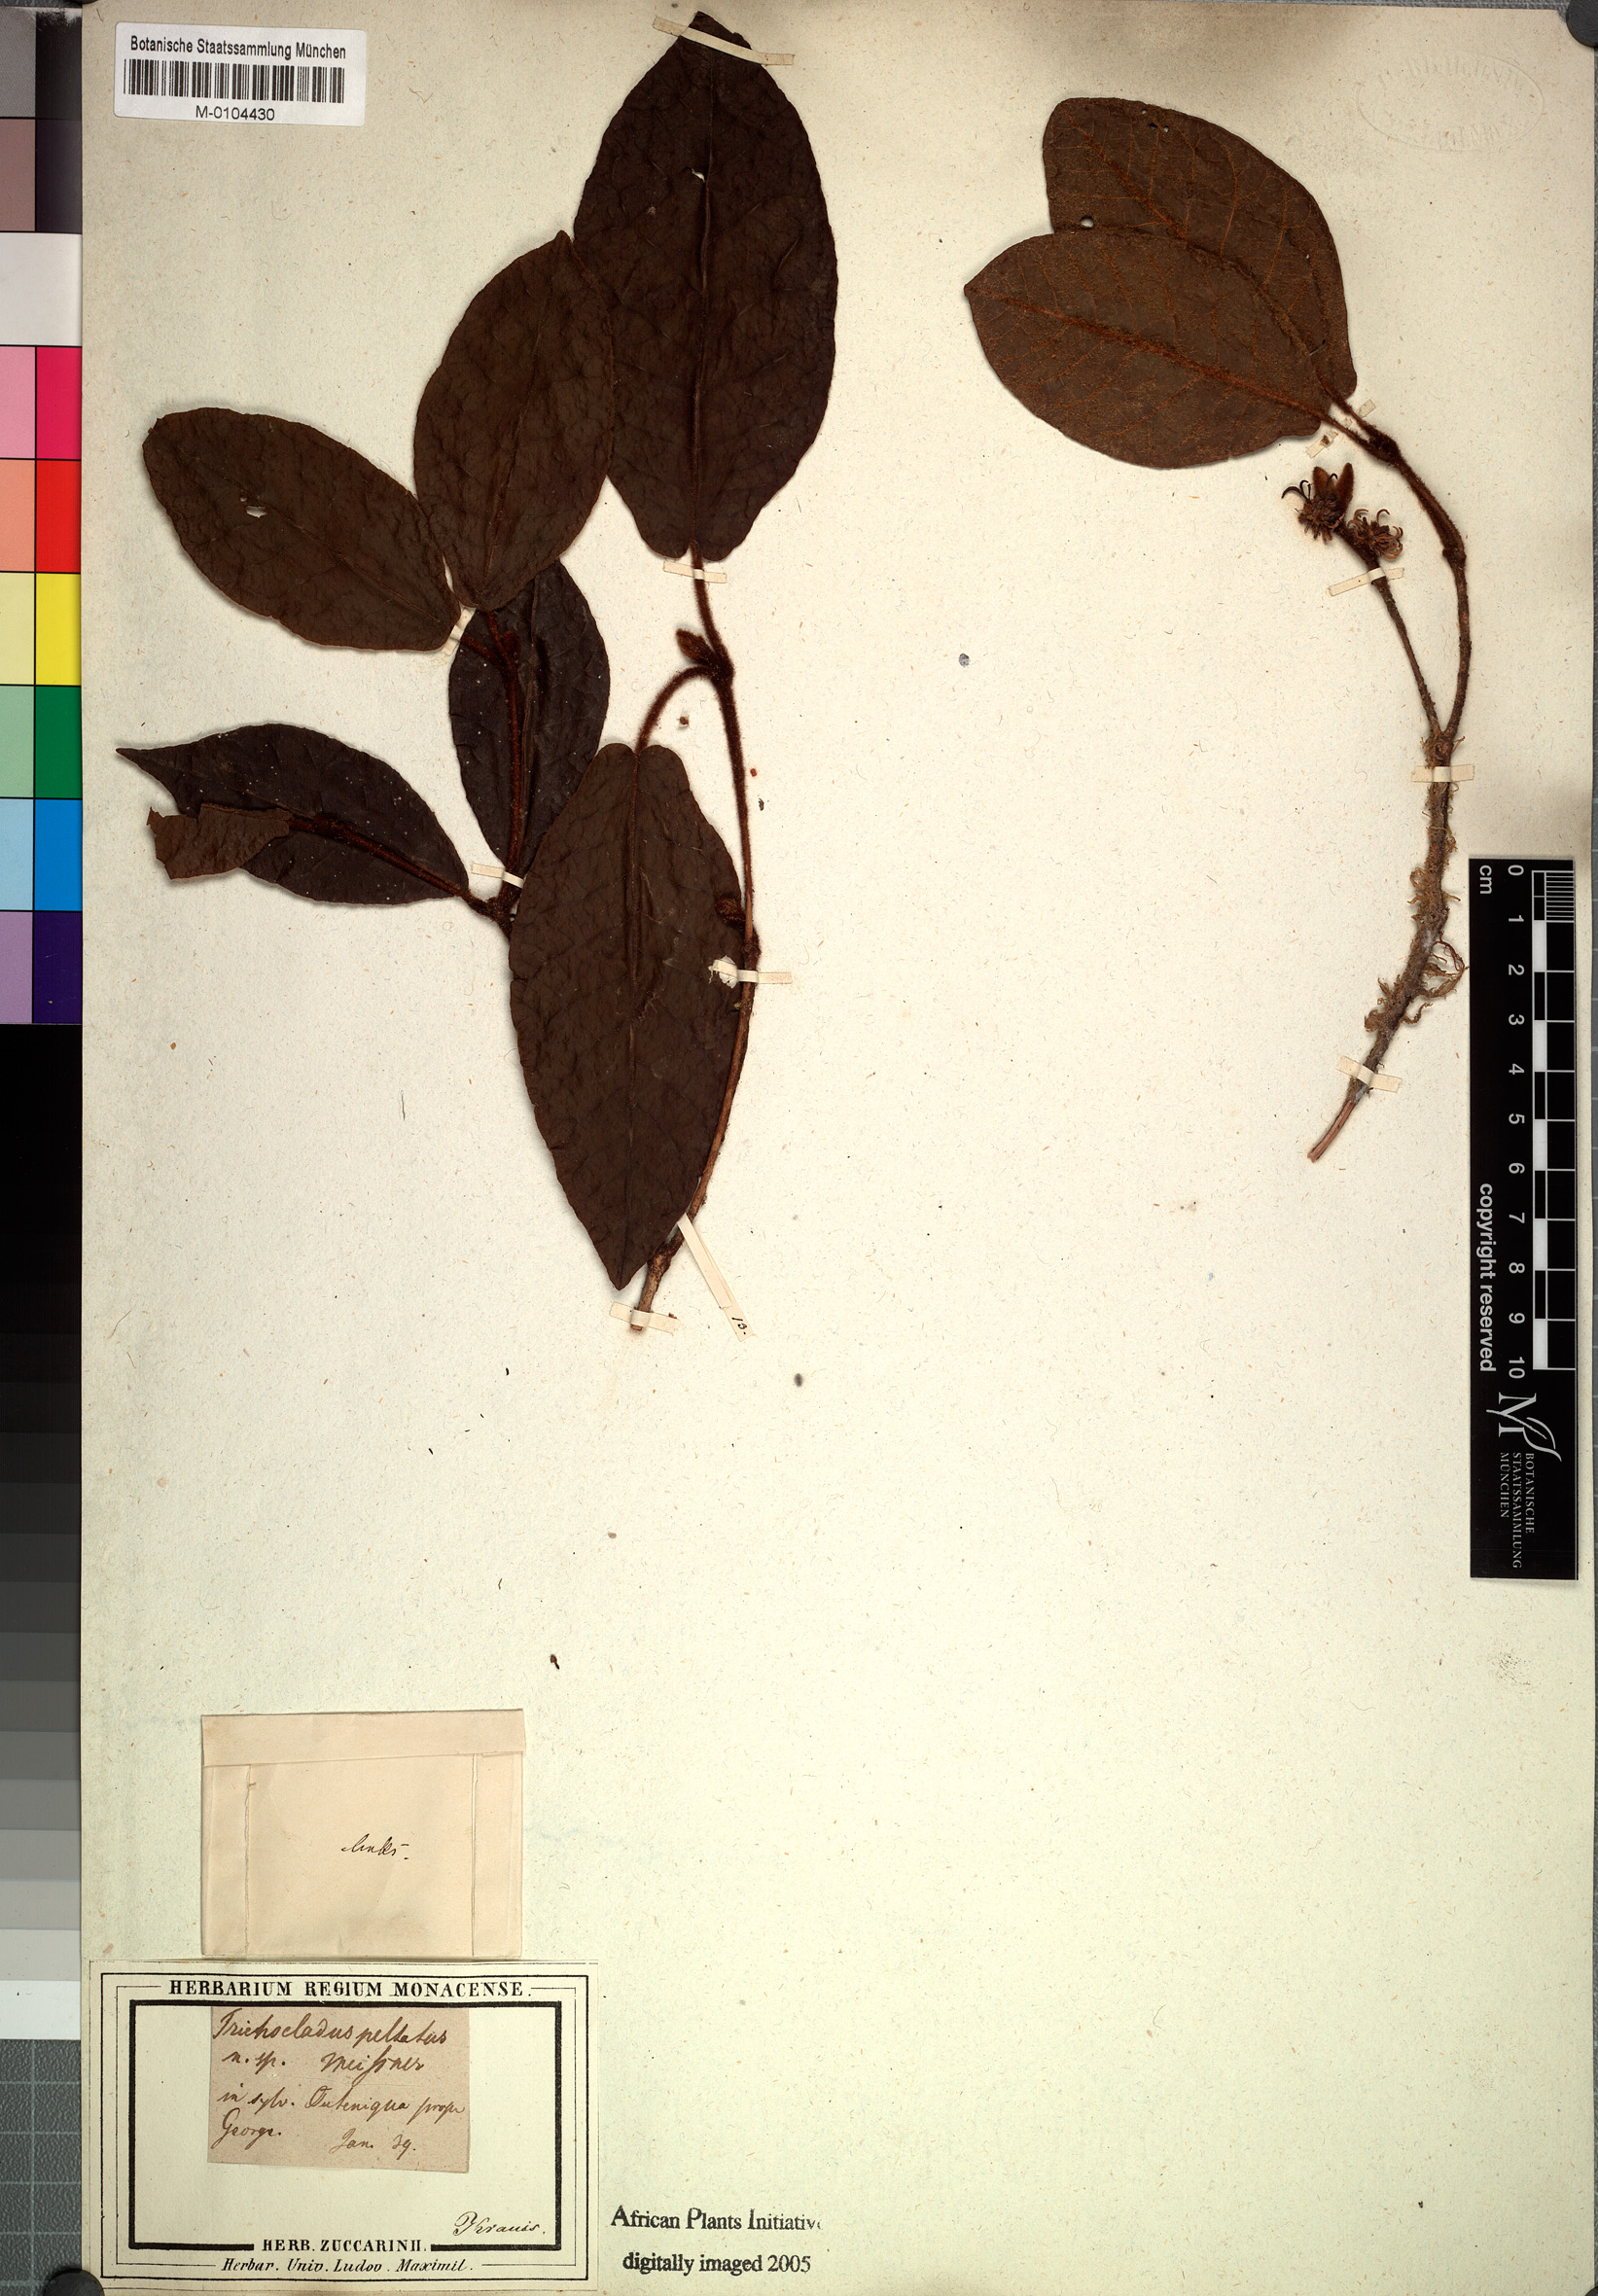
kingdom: Plantae
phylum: Tracheophyta
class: Magnoliopsida
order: Saxifragales
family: Hamamelidaceae
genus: Trichocladus
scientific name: Trichocladus crinitus
